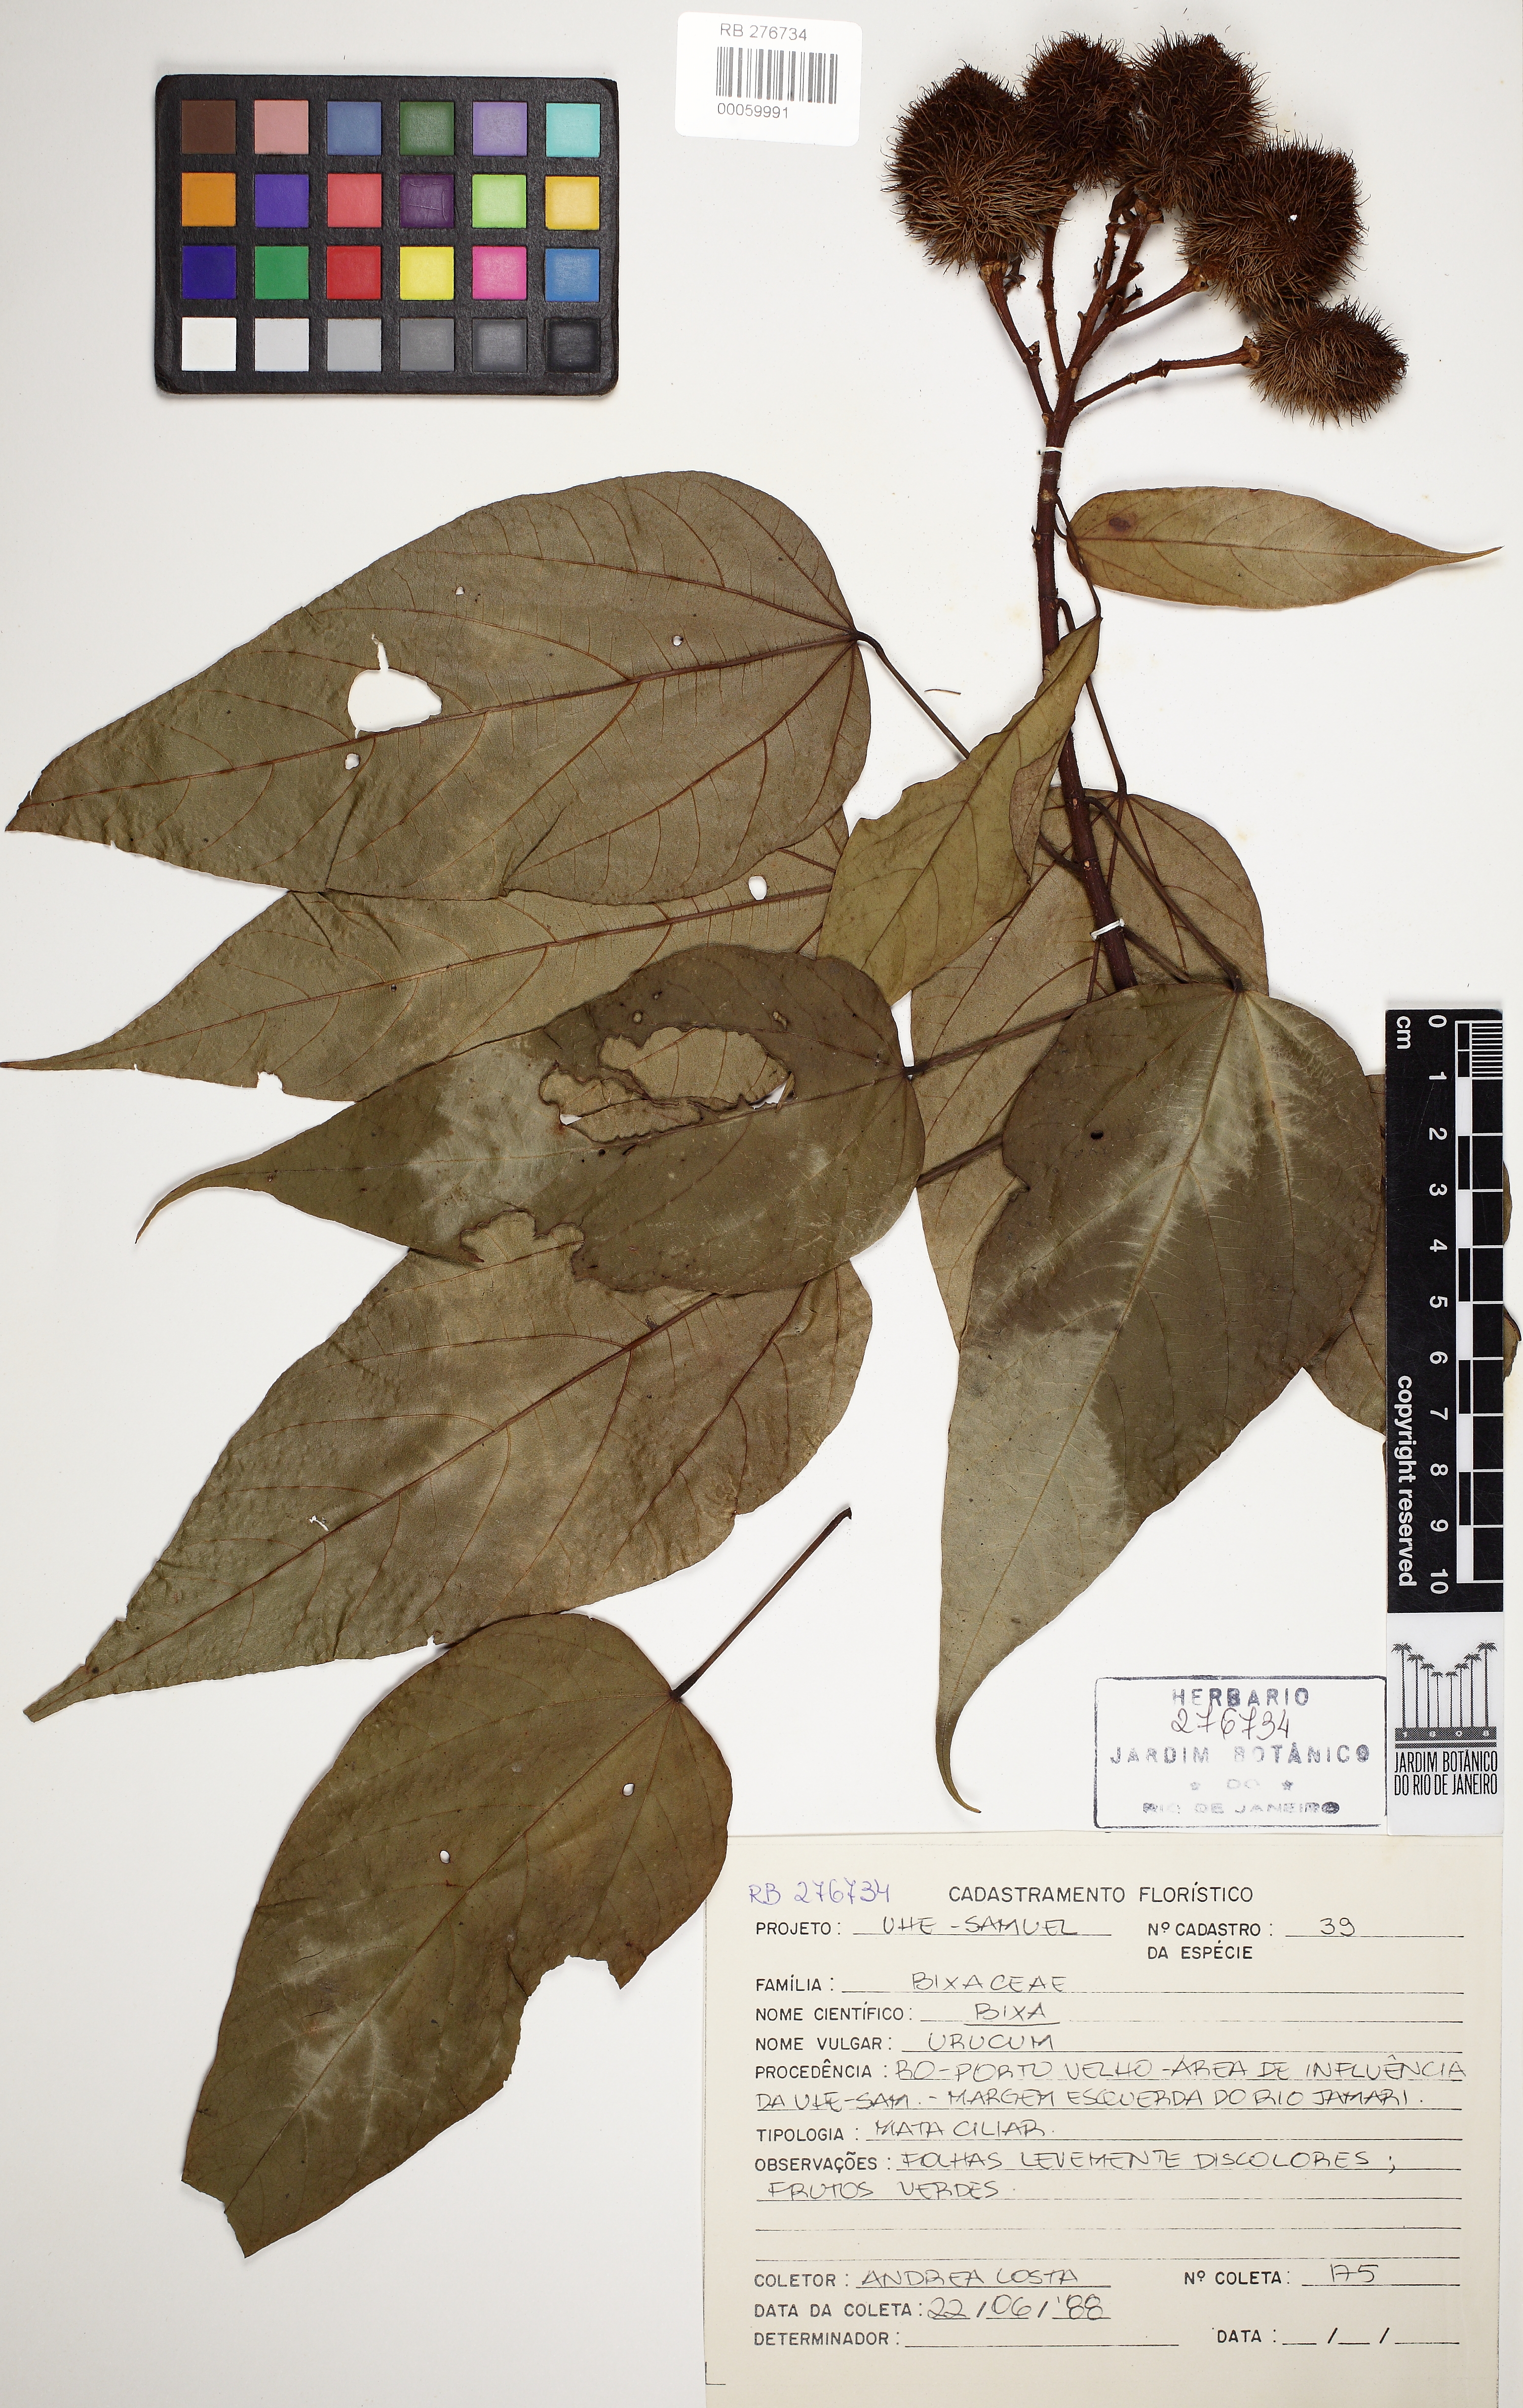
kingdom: Plantae
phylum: Tracheophyta
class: Magnoliopsida
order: Malvales
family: Bixaceae
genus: Bixa
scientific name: Bixa
